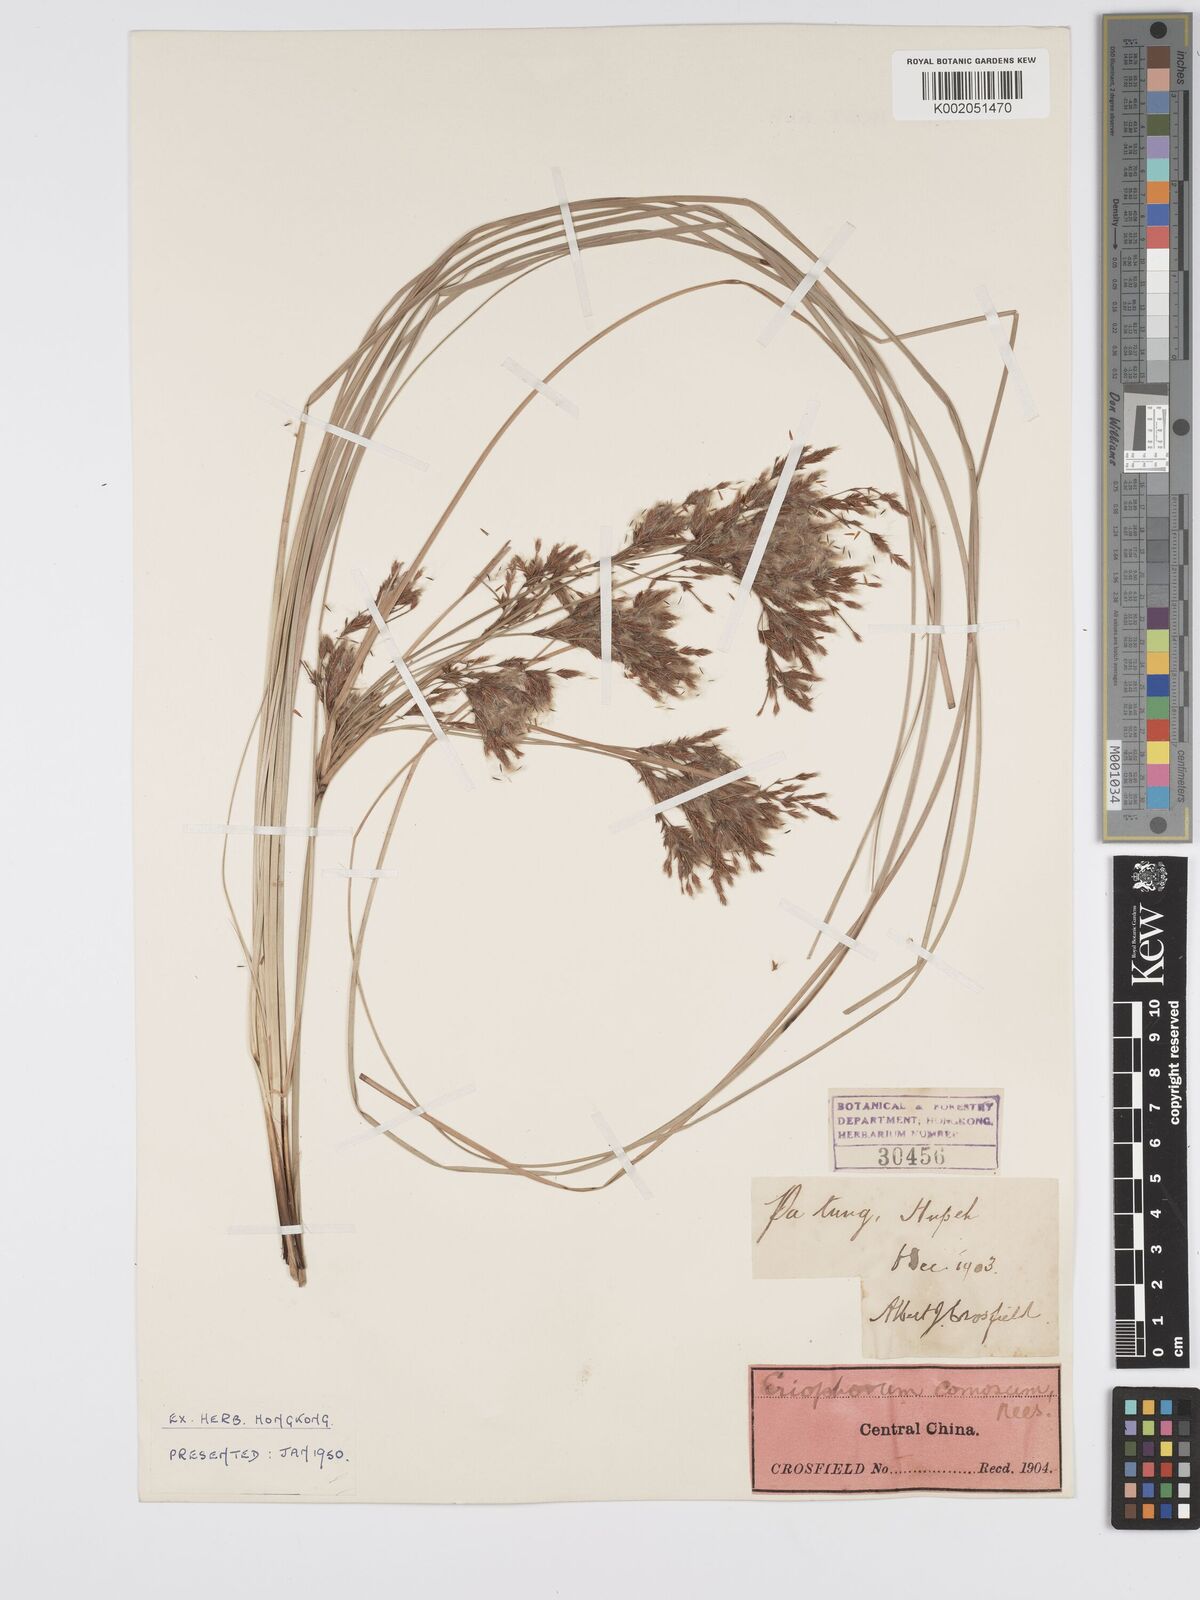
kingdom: Plantae
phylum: Tracheophyta
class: Liliopsida
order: Poales
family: Cyperaceae
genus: Erioscirpus
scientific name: Erioscirpus comosus
